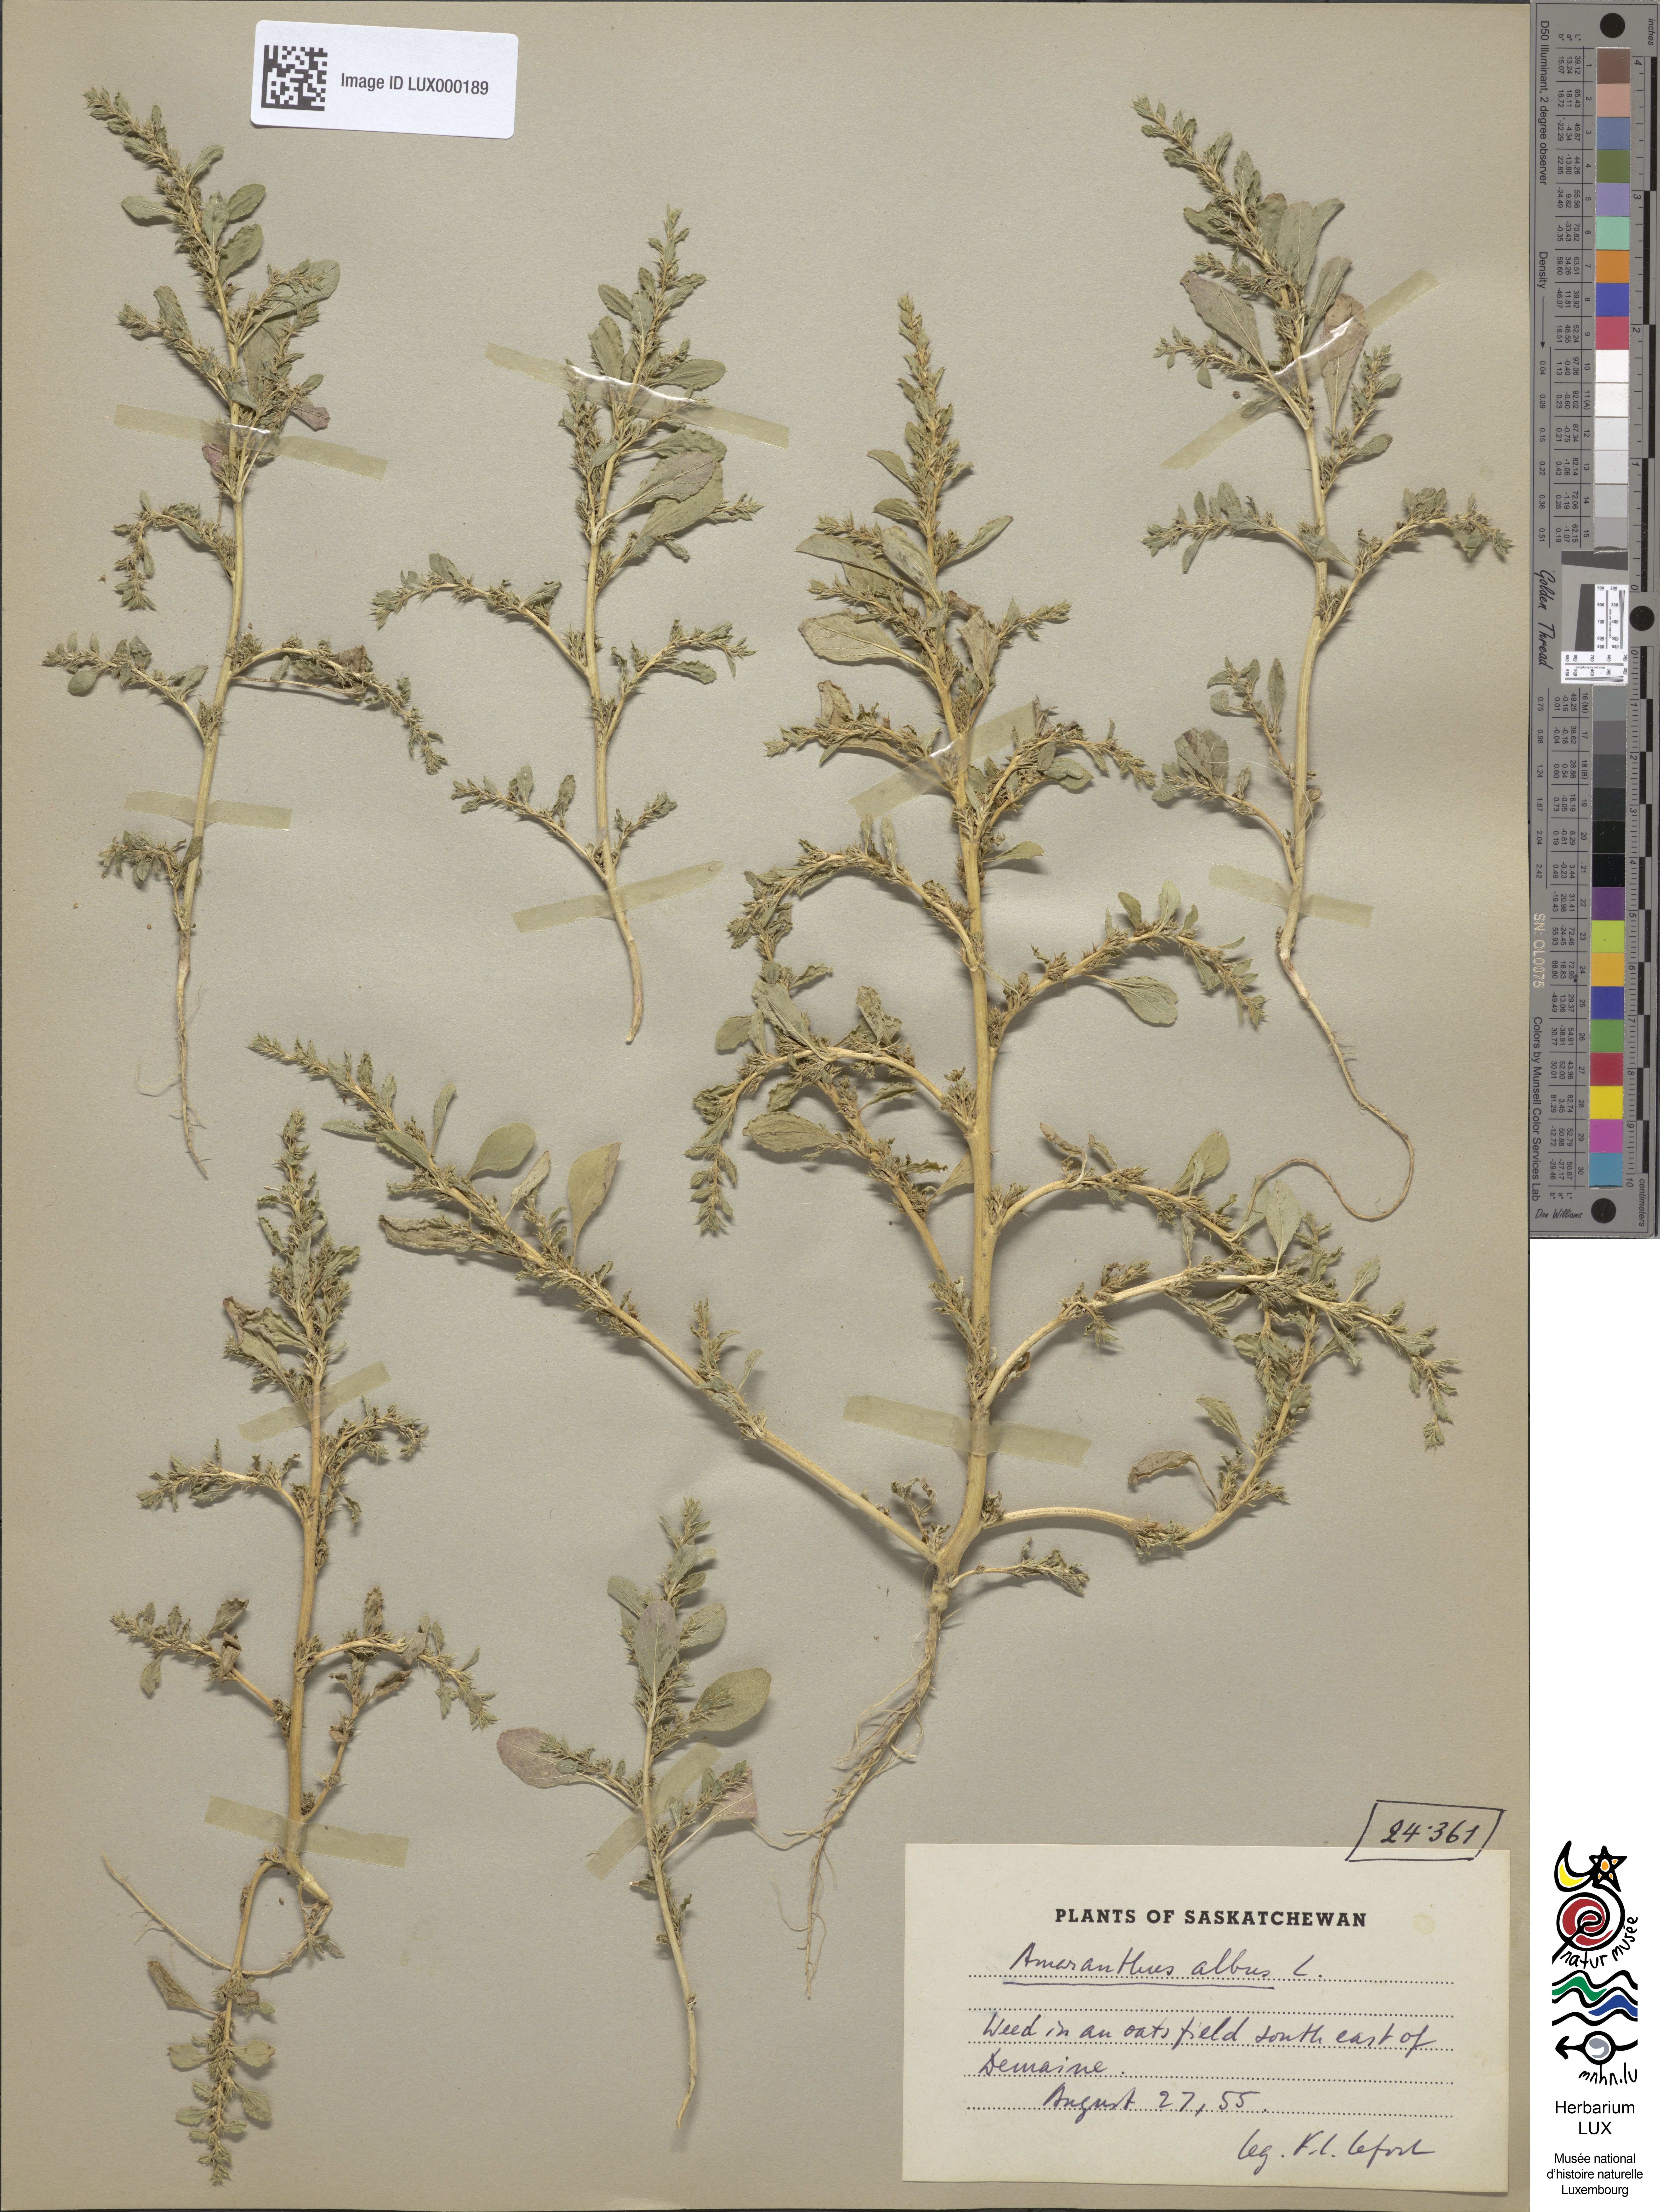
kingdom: Plantae
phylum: Tracheophyta
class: Magnoliopsida
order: Caryophyllales
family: Amaranthaceae
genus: Amaranthus
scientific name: Amaranthus albus
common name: White pigweed
